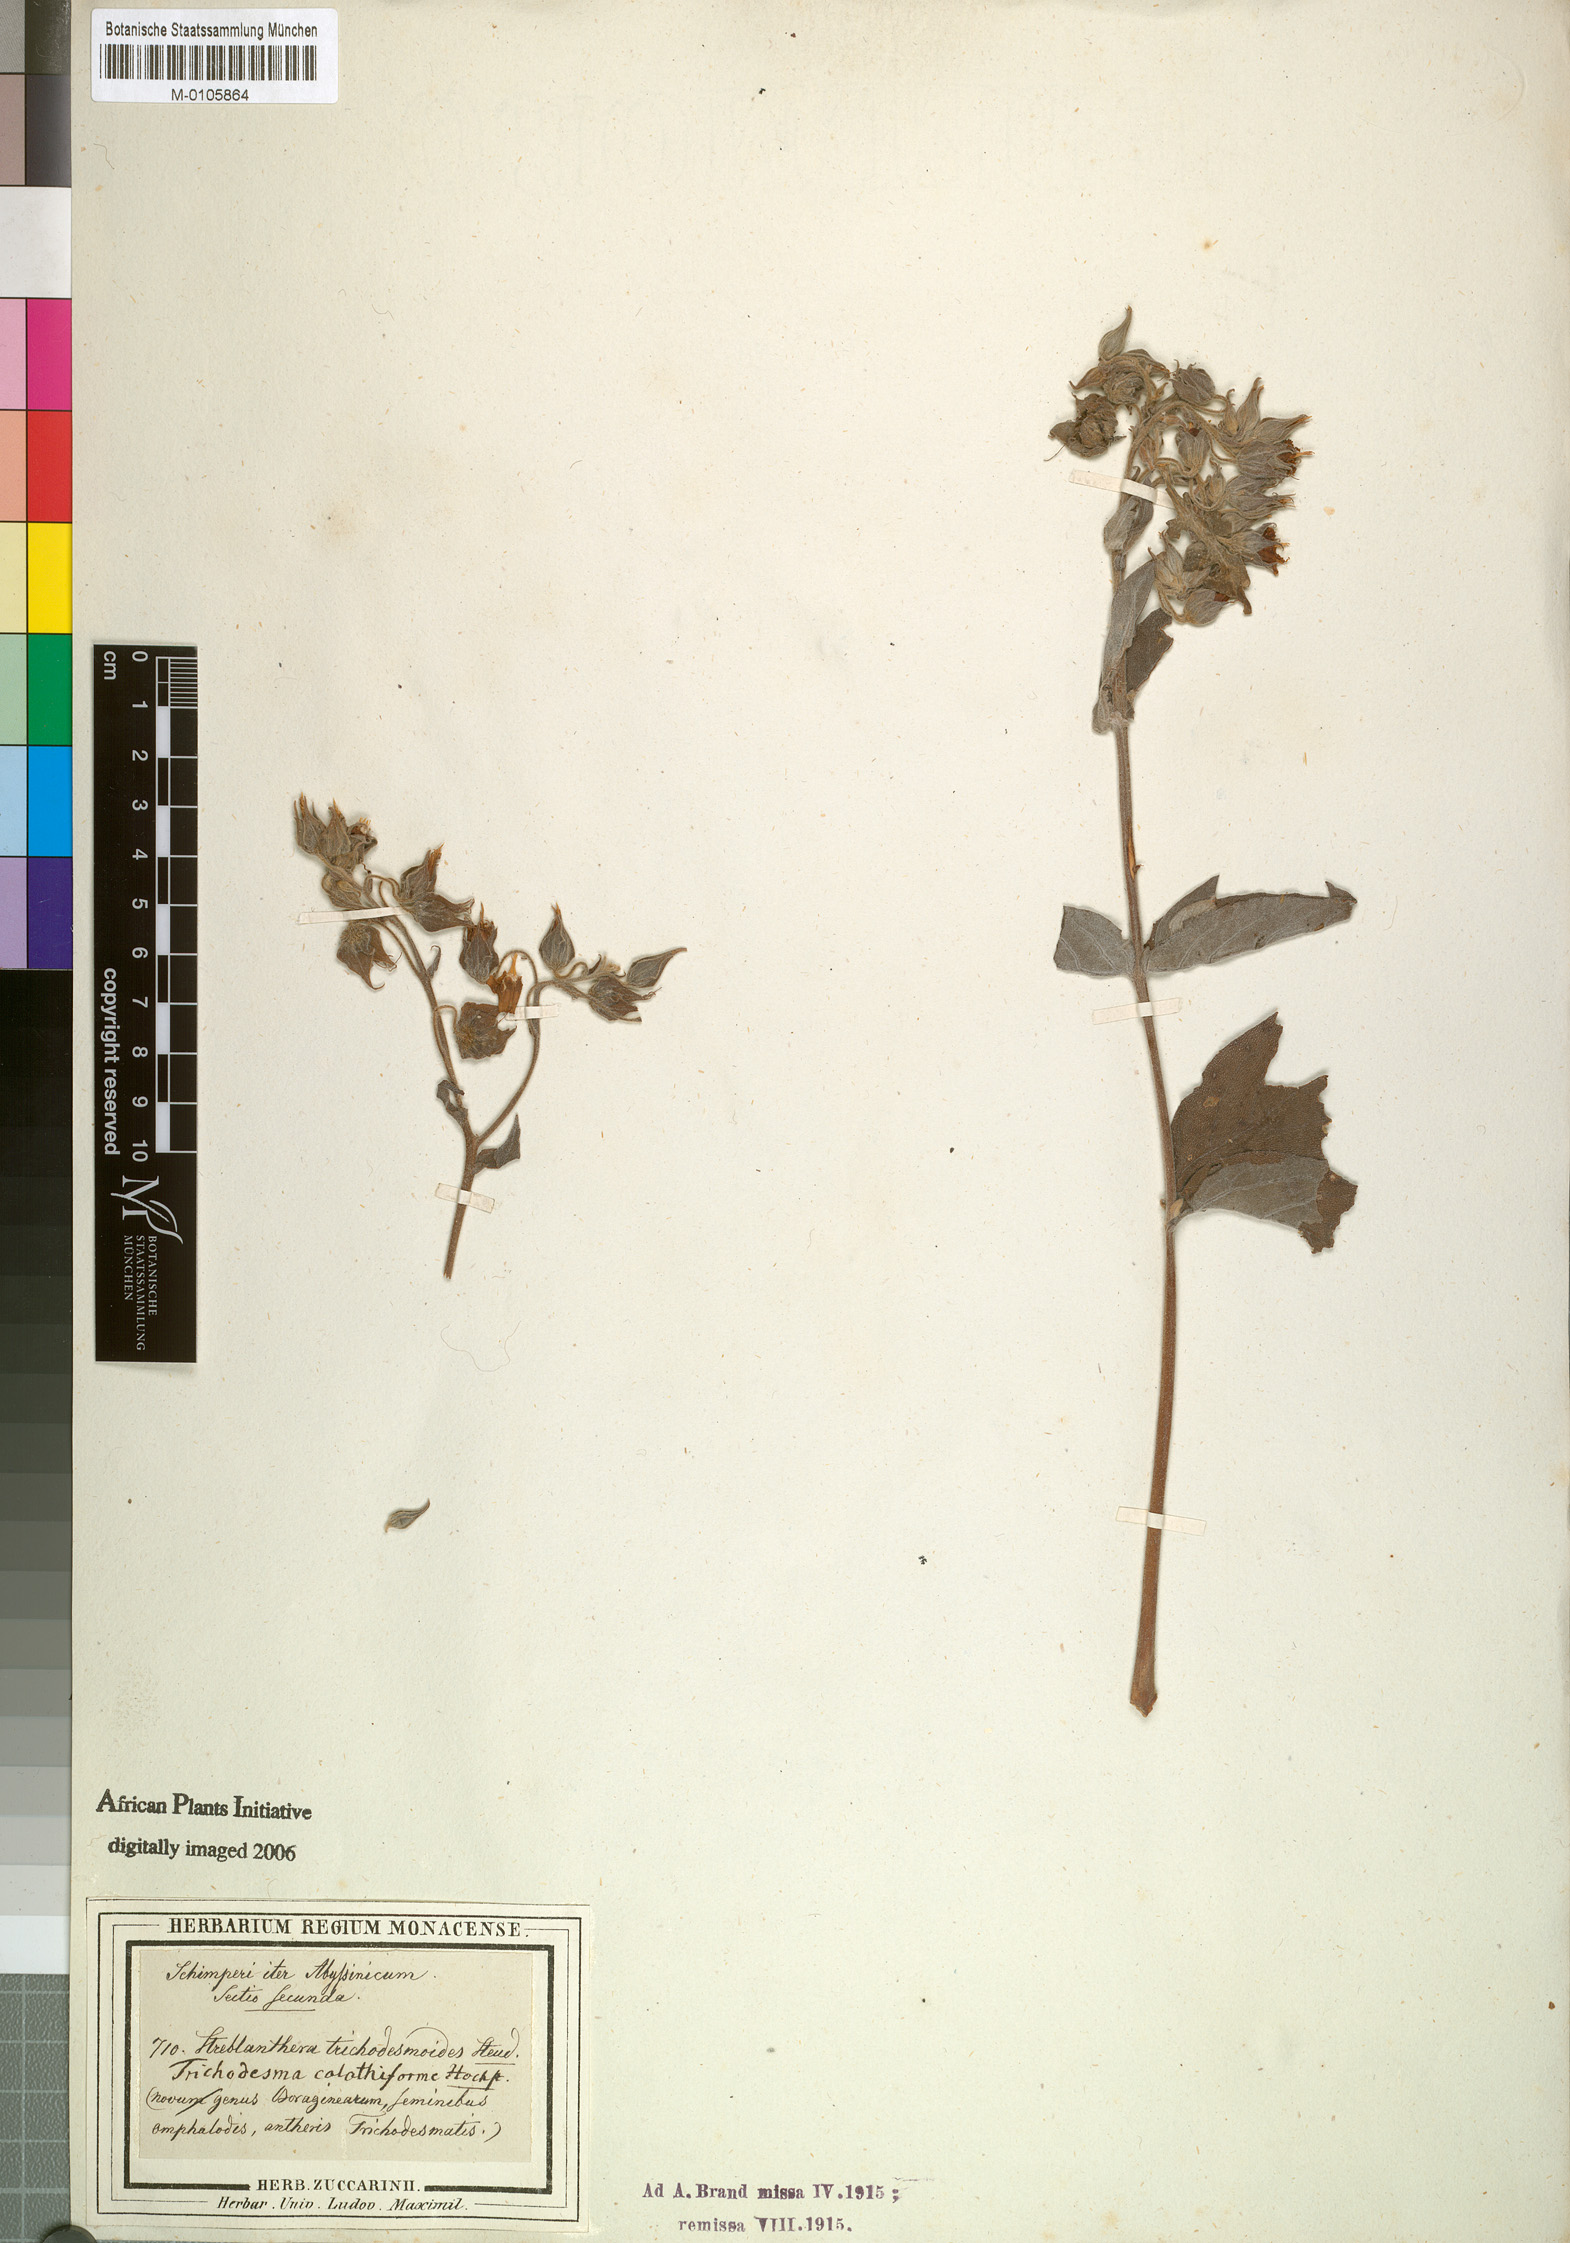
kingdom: Plantae
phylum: Tracheophyta
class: Magnoliopsida
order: Boraginales
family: Boraginaceae
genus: Trichodesma
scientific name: Trichodesma trichodesmoides
